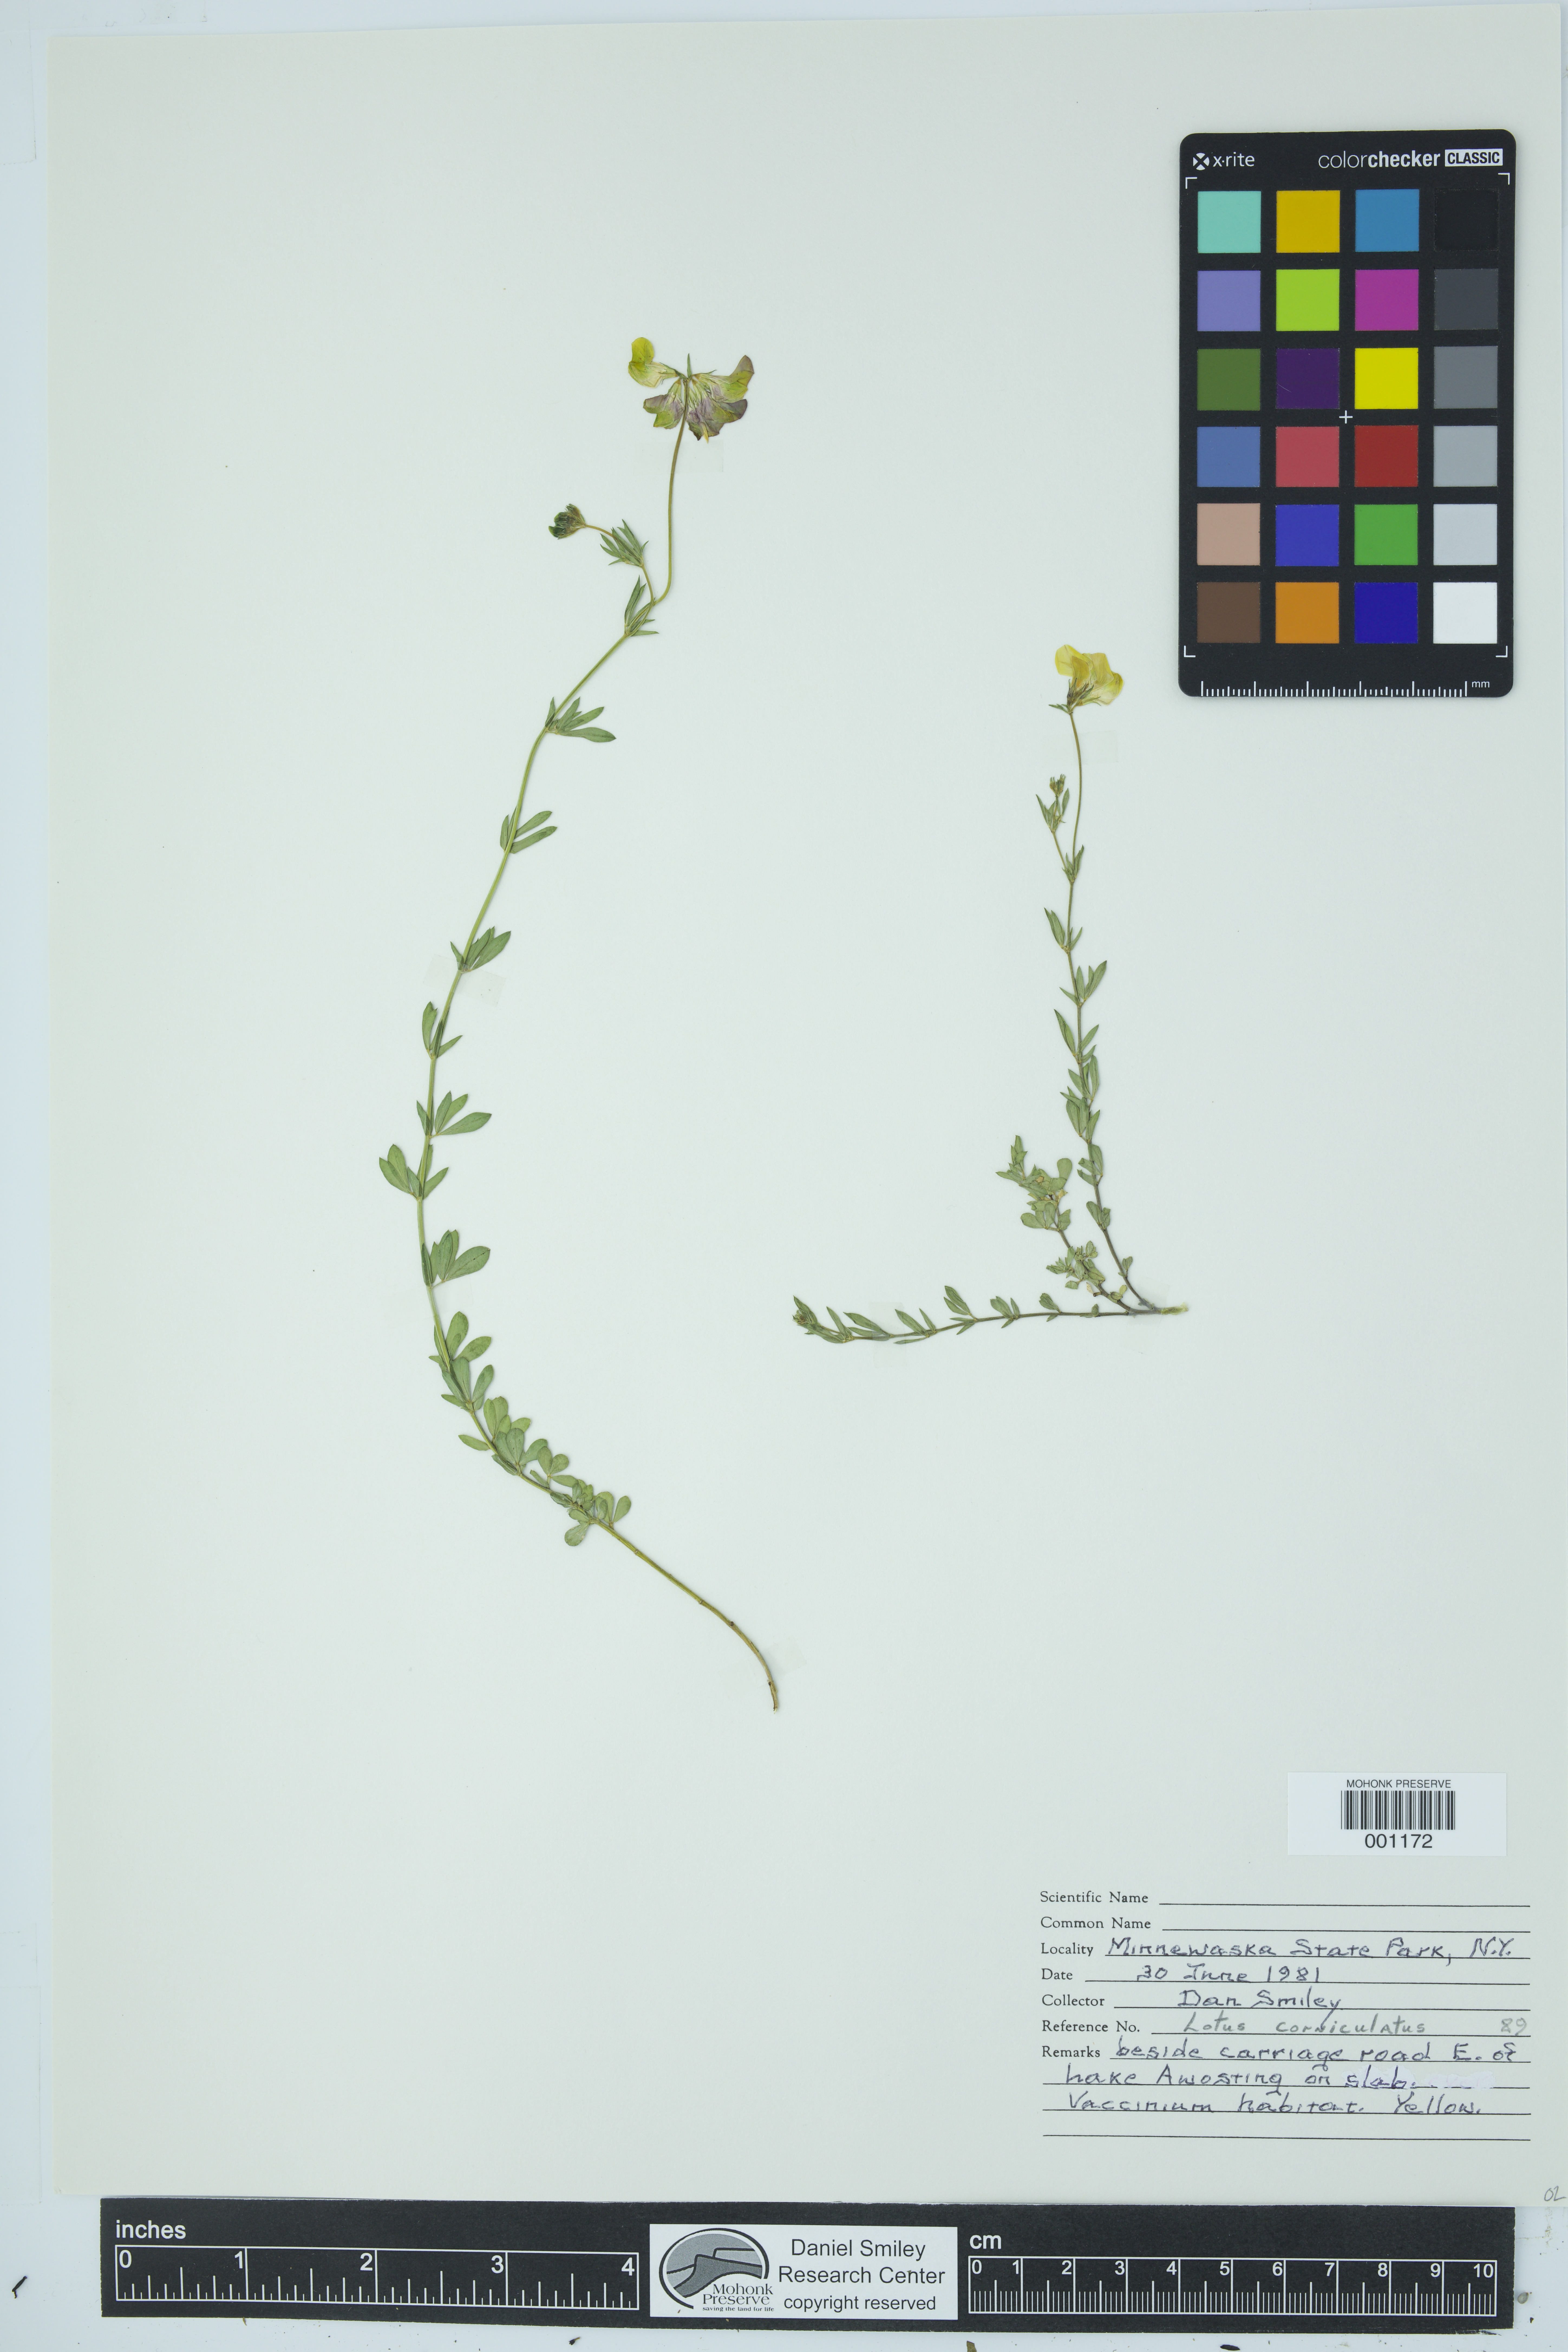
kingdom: Plantae
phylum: Tracheophyta
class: Magnoliopsida
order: Fabales
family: Fabaceae
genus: Lotus
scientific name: Lotus corniculatus
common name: Common bird's-foot-trefoil
